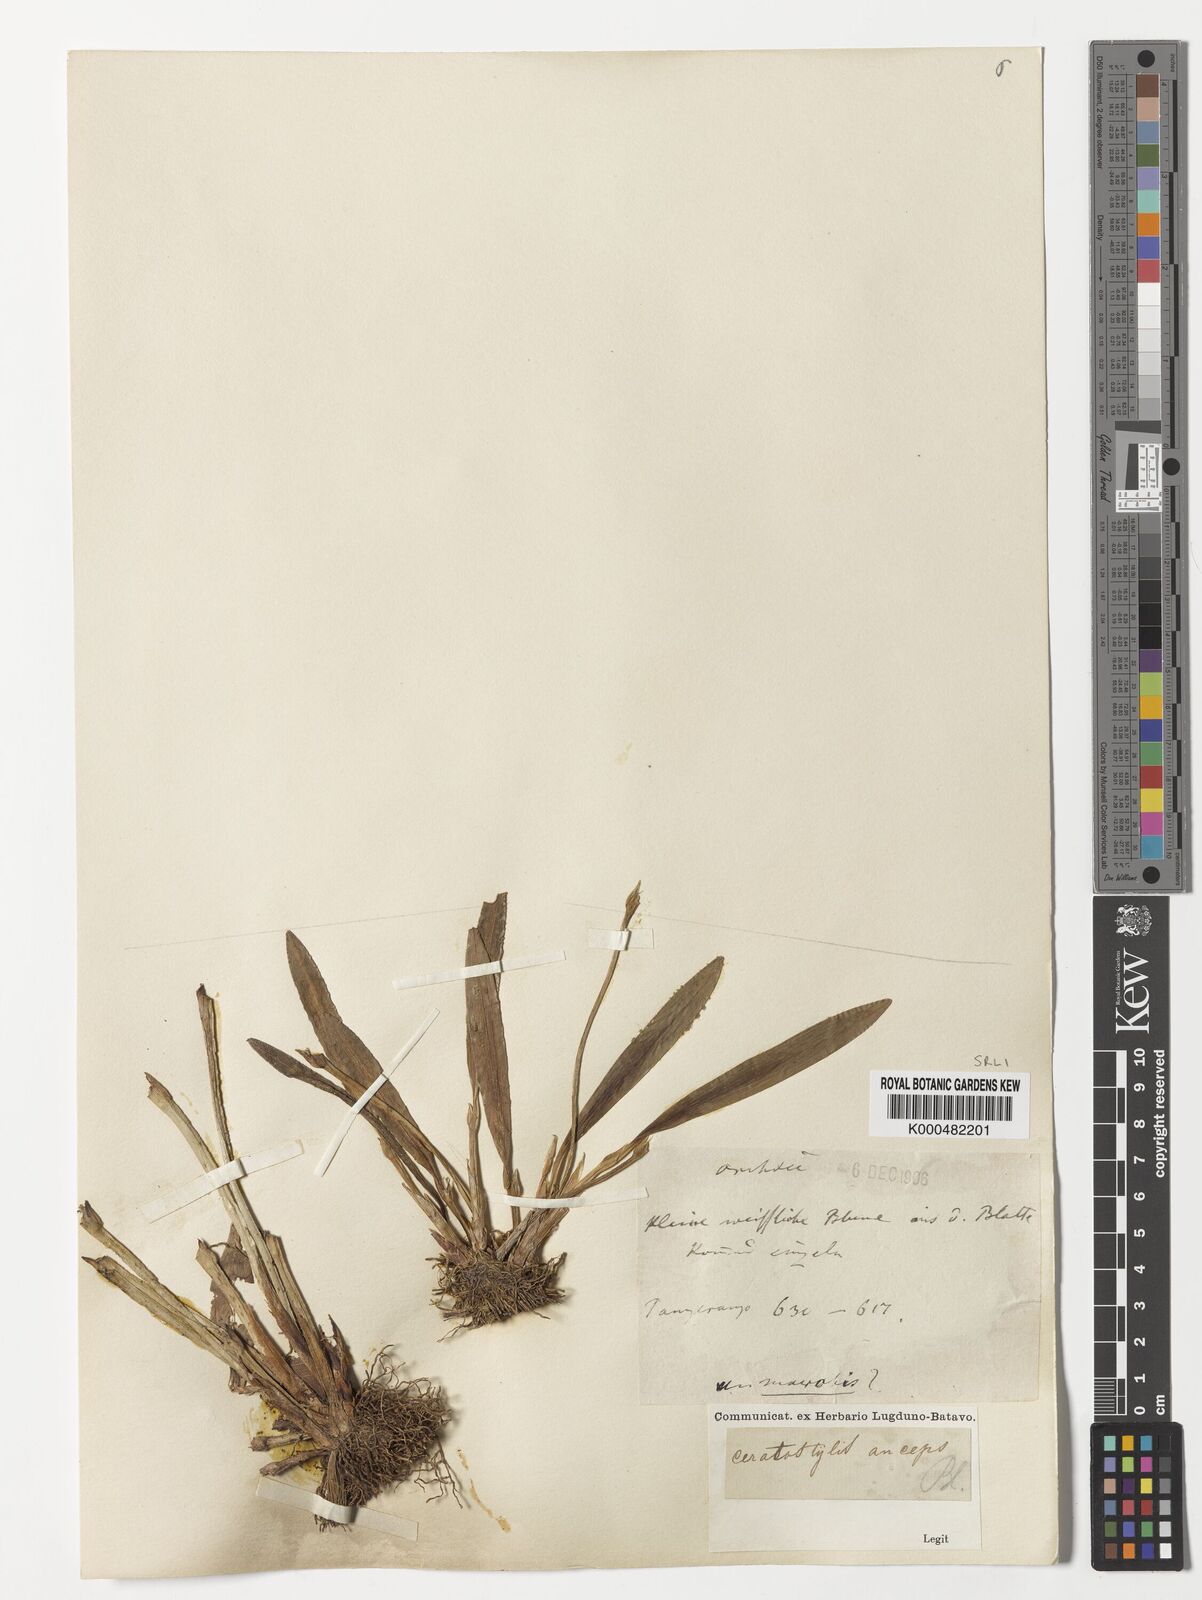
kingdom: Plantae
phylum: Tracheophyta
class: Liliopsida
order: Asparagales
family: Orchidaceae
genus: Ceratostylis
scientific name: Ceratostylis
